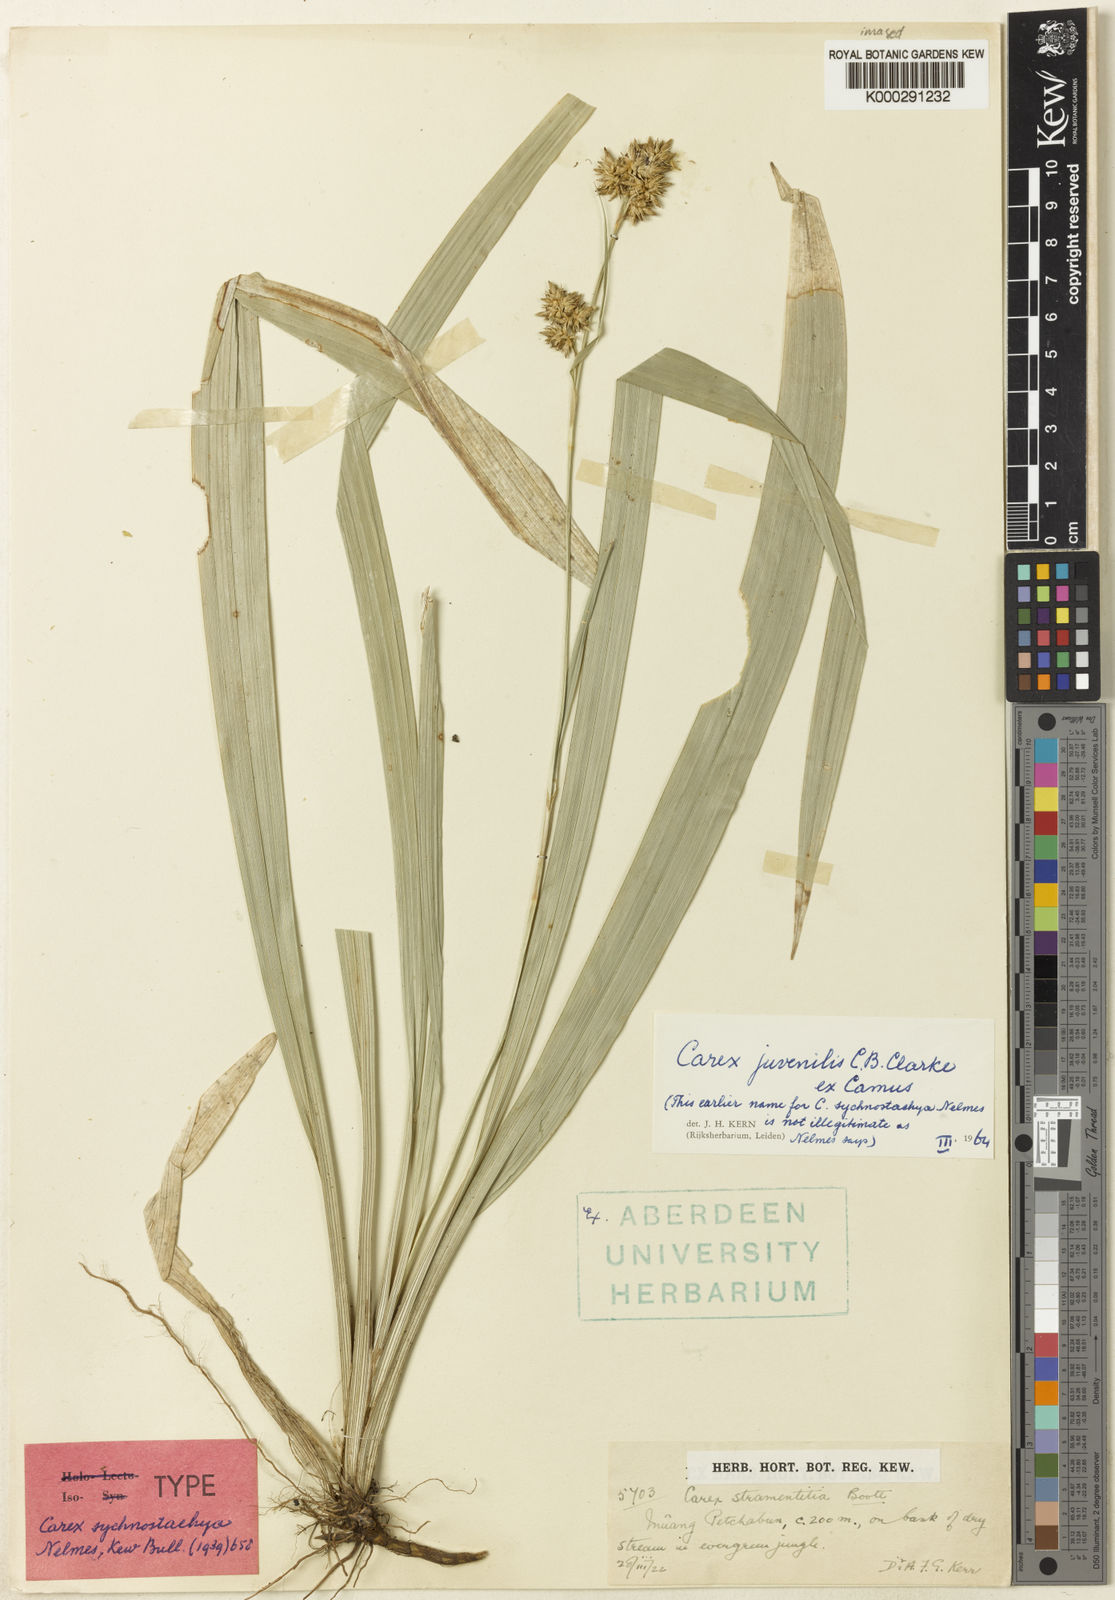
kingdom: Plantae
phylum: Tracheophyta
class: Liliopsida
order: Poales
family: Cyperaceae
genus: Carex
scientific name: Carex juvenilis
